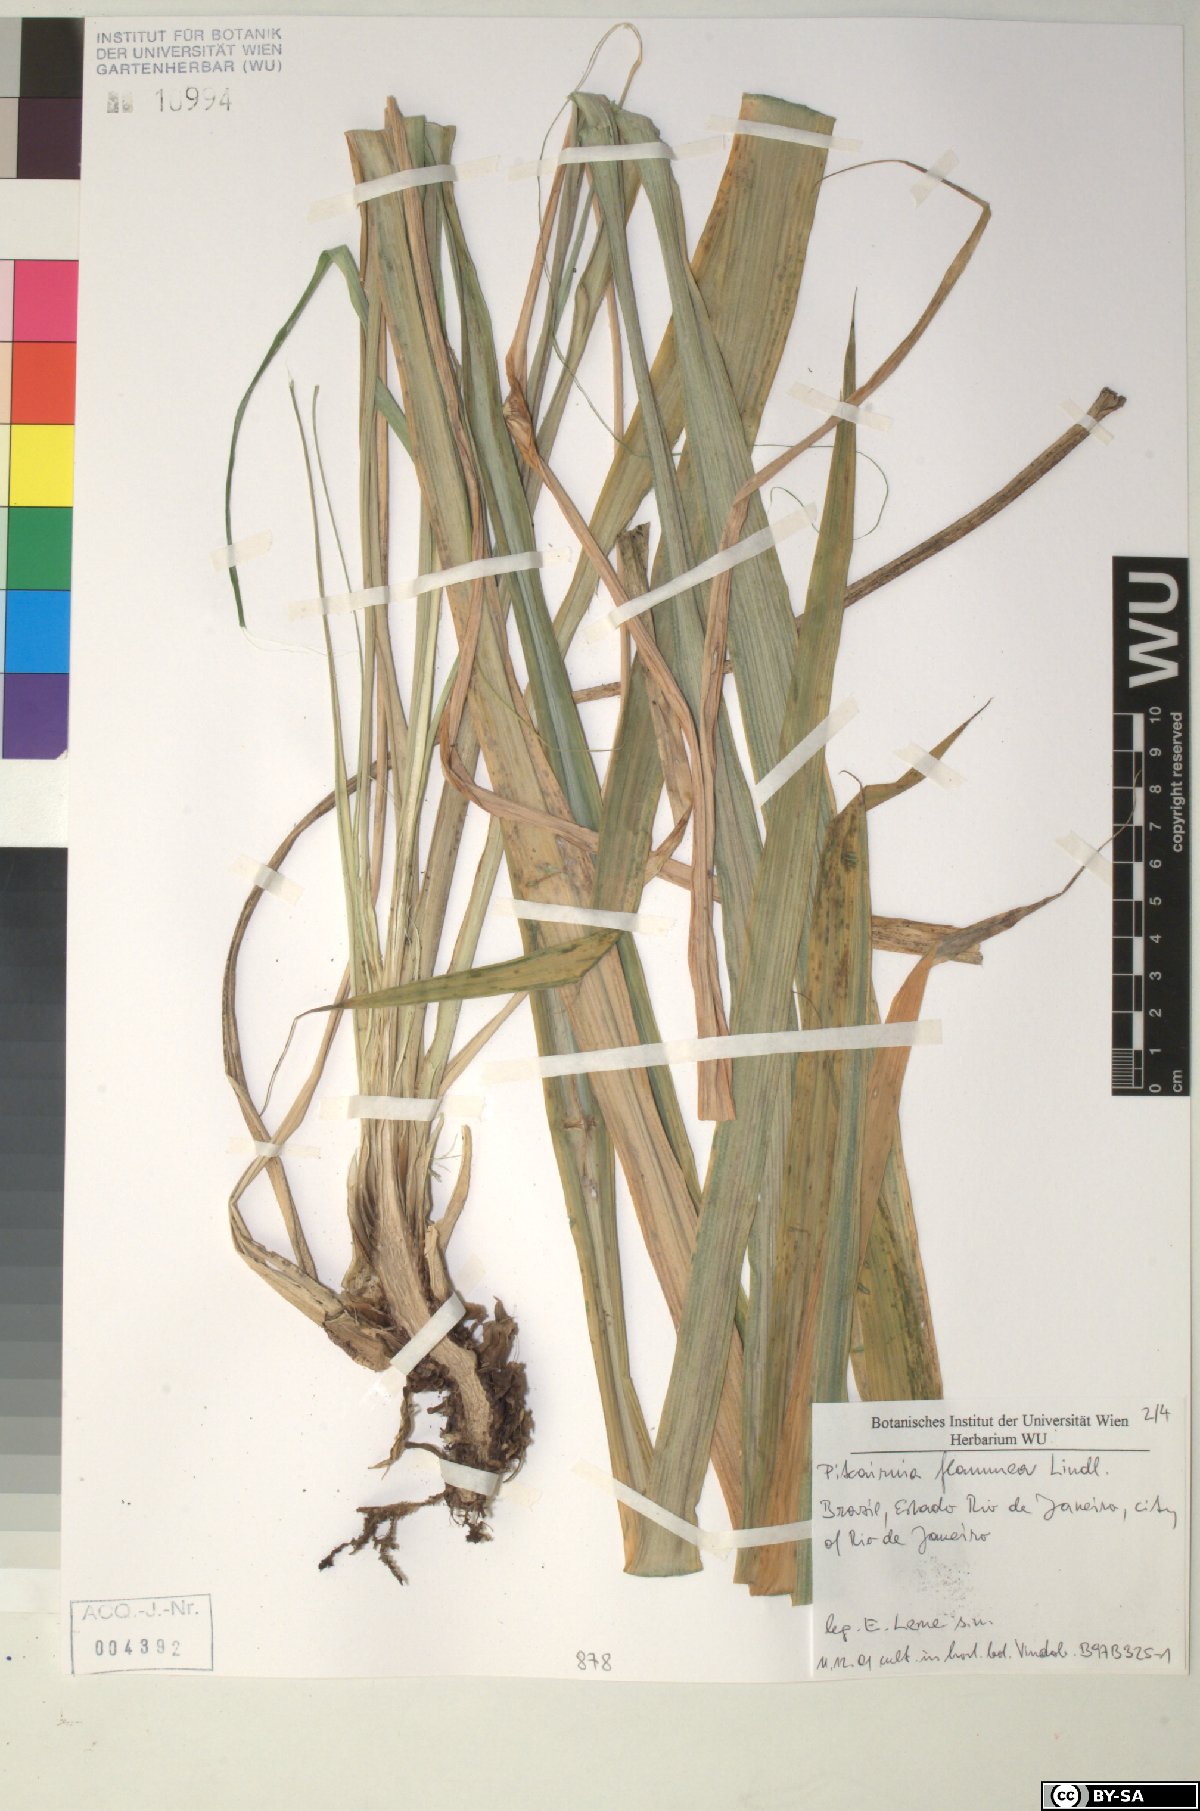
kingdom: Plantae
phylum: Tracheophyta
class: Liliopsida
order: Poales
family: Bromeliaceae
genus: Pitcairnia
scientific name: Pitcairnia
